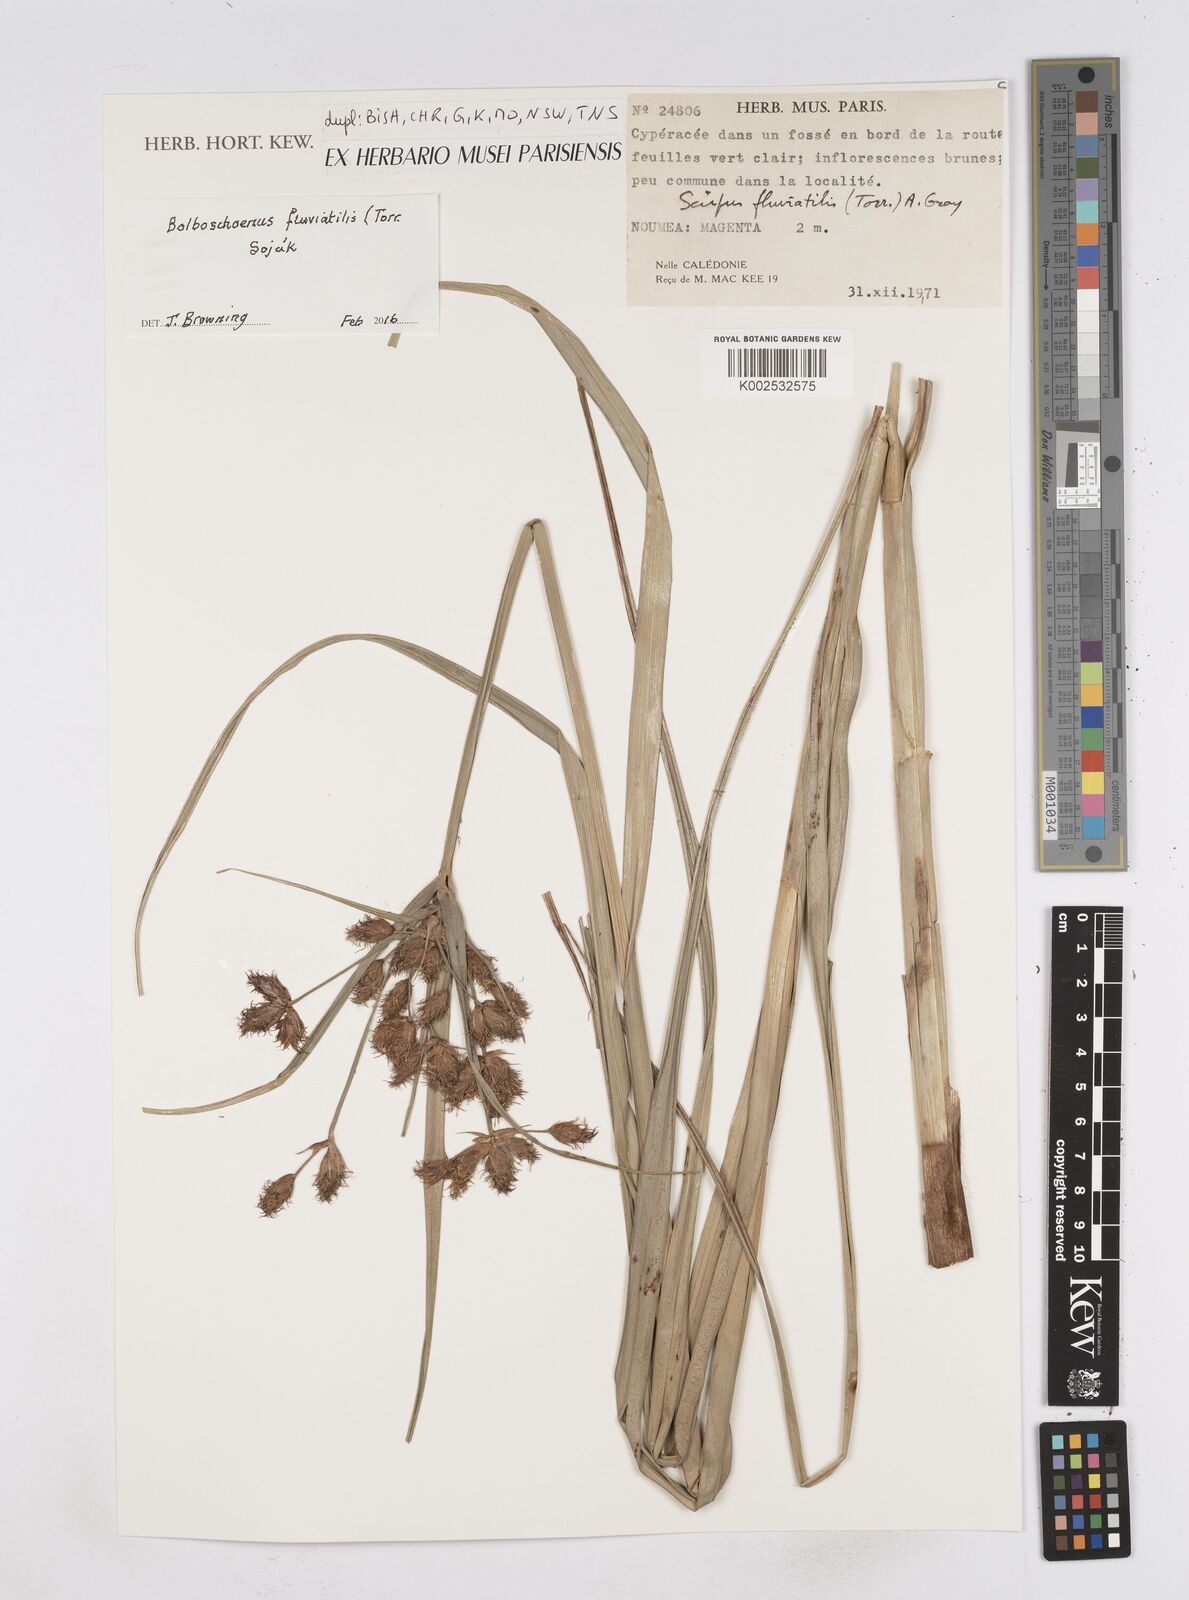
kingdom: Plantae
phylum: Tracheophyta
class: Liliopsida
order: Poales
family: Cyperaceae
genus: Bolboschoenus
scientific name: Bolboschoenus maritimus
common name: Sea club-rush
